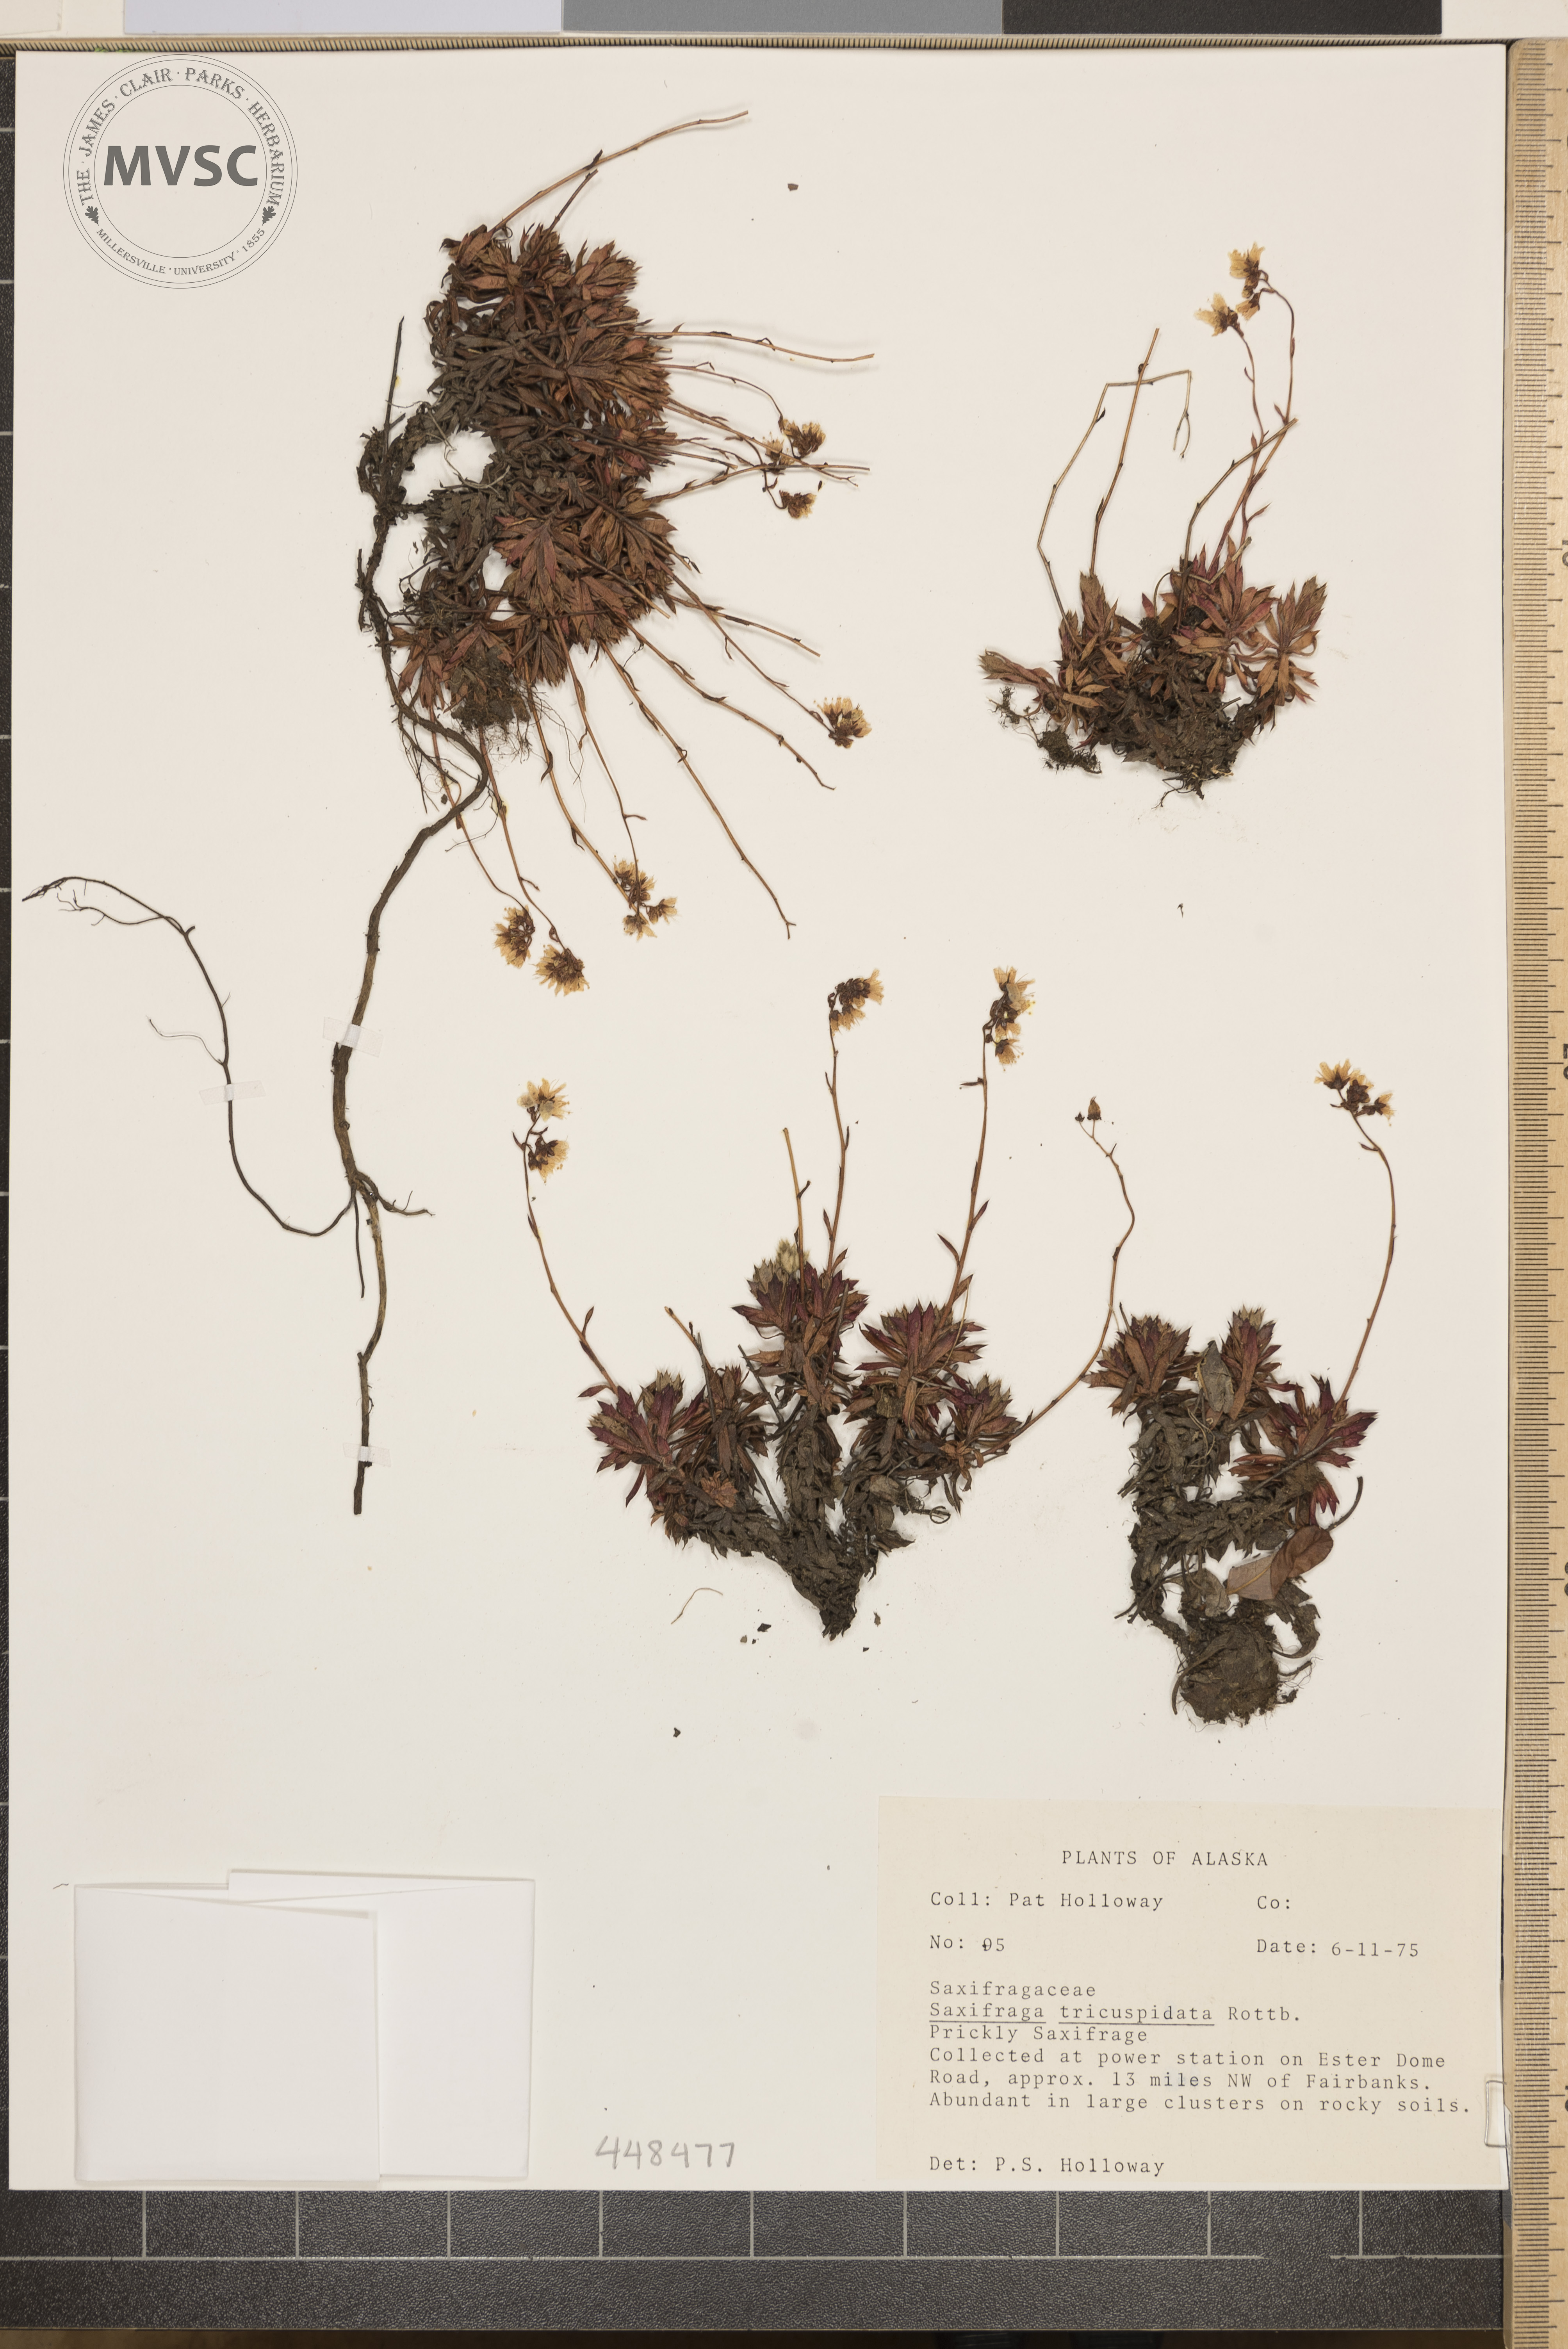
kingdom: Plantae
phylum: Tracheophyta
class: Magnoliopsida
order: Saxifragales
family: Saxifragaceae
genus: Saxifraga
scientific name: Saxifraga tricuspidata
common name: Prickly saxifrage
